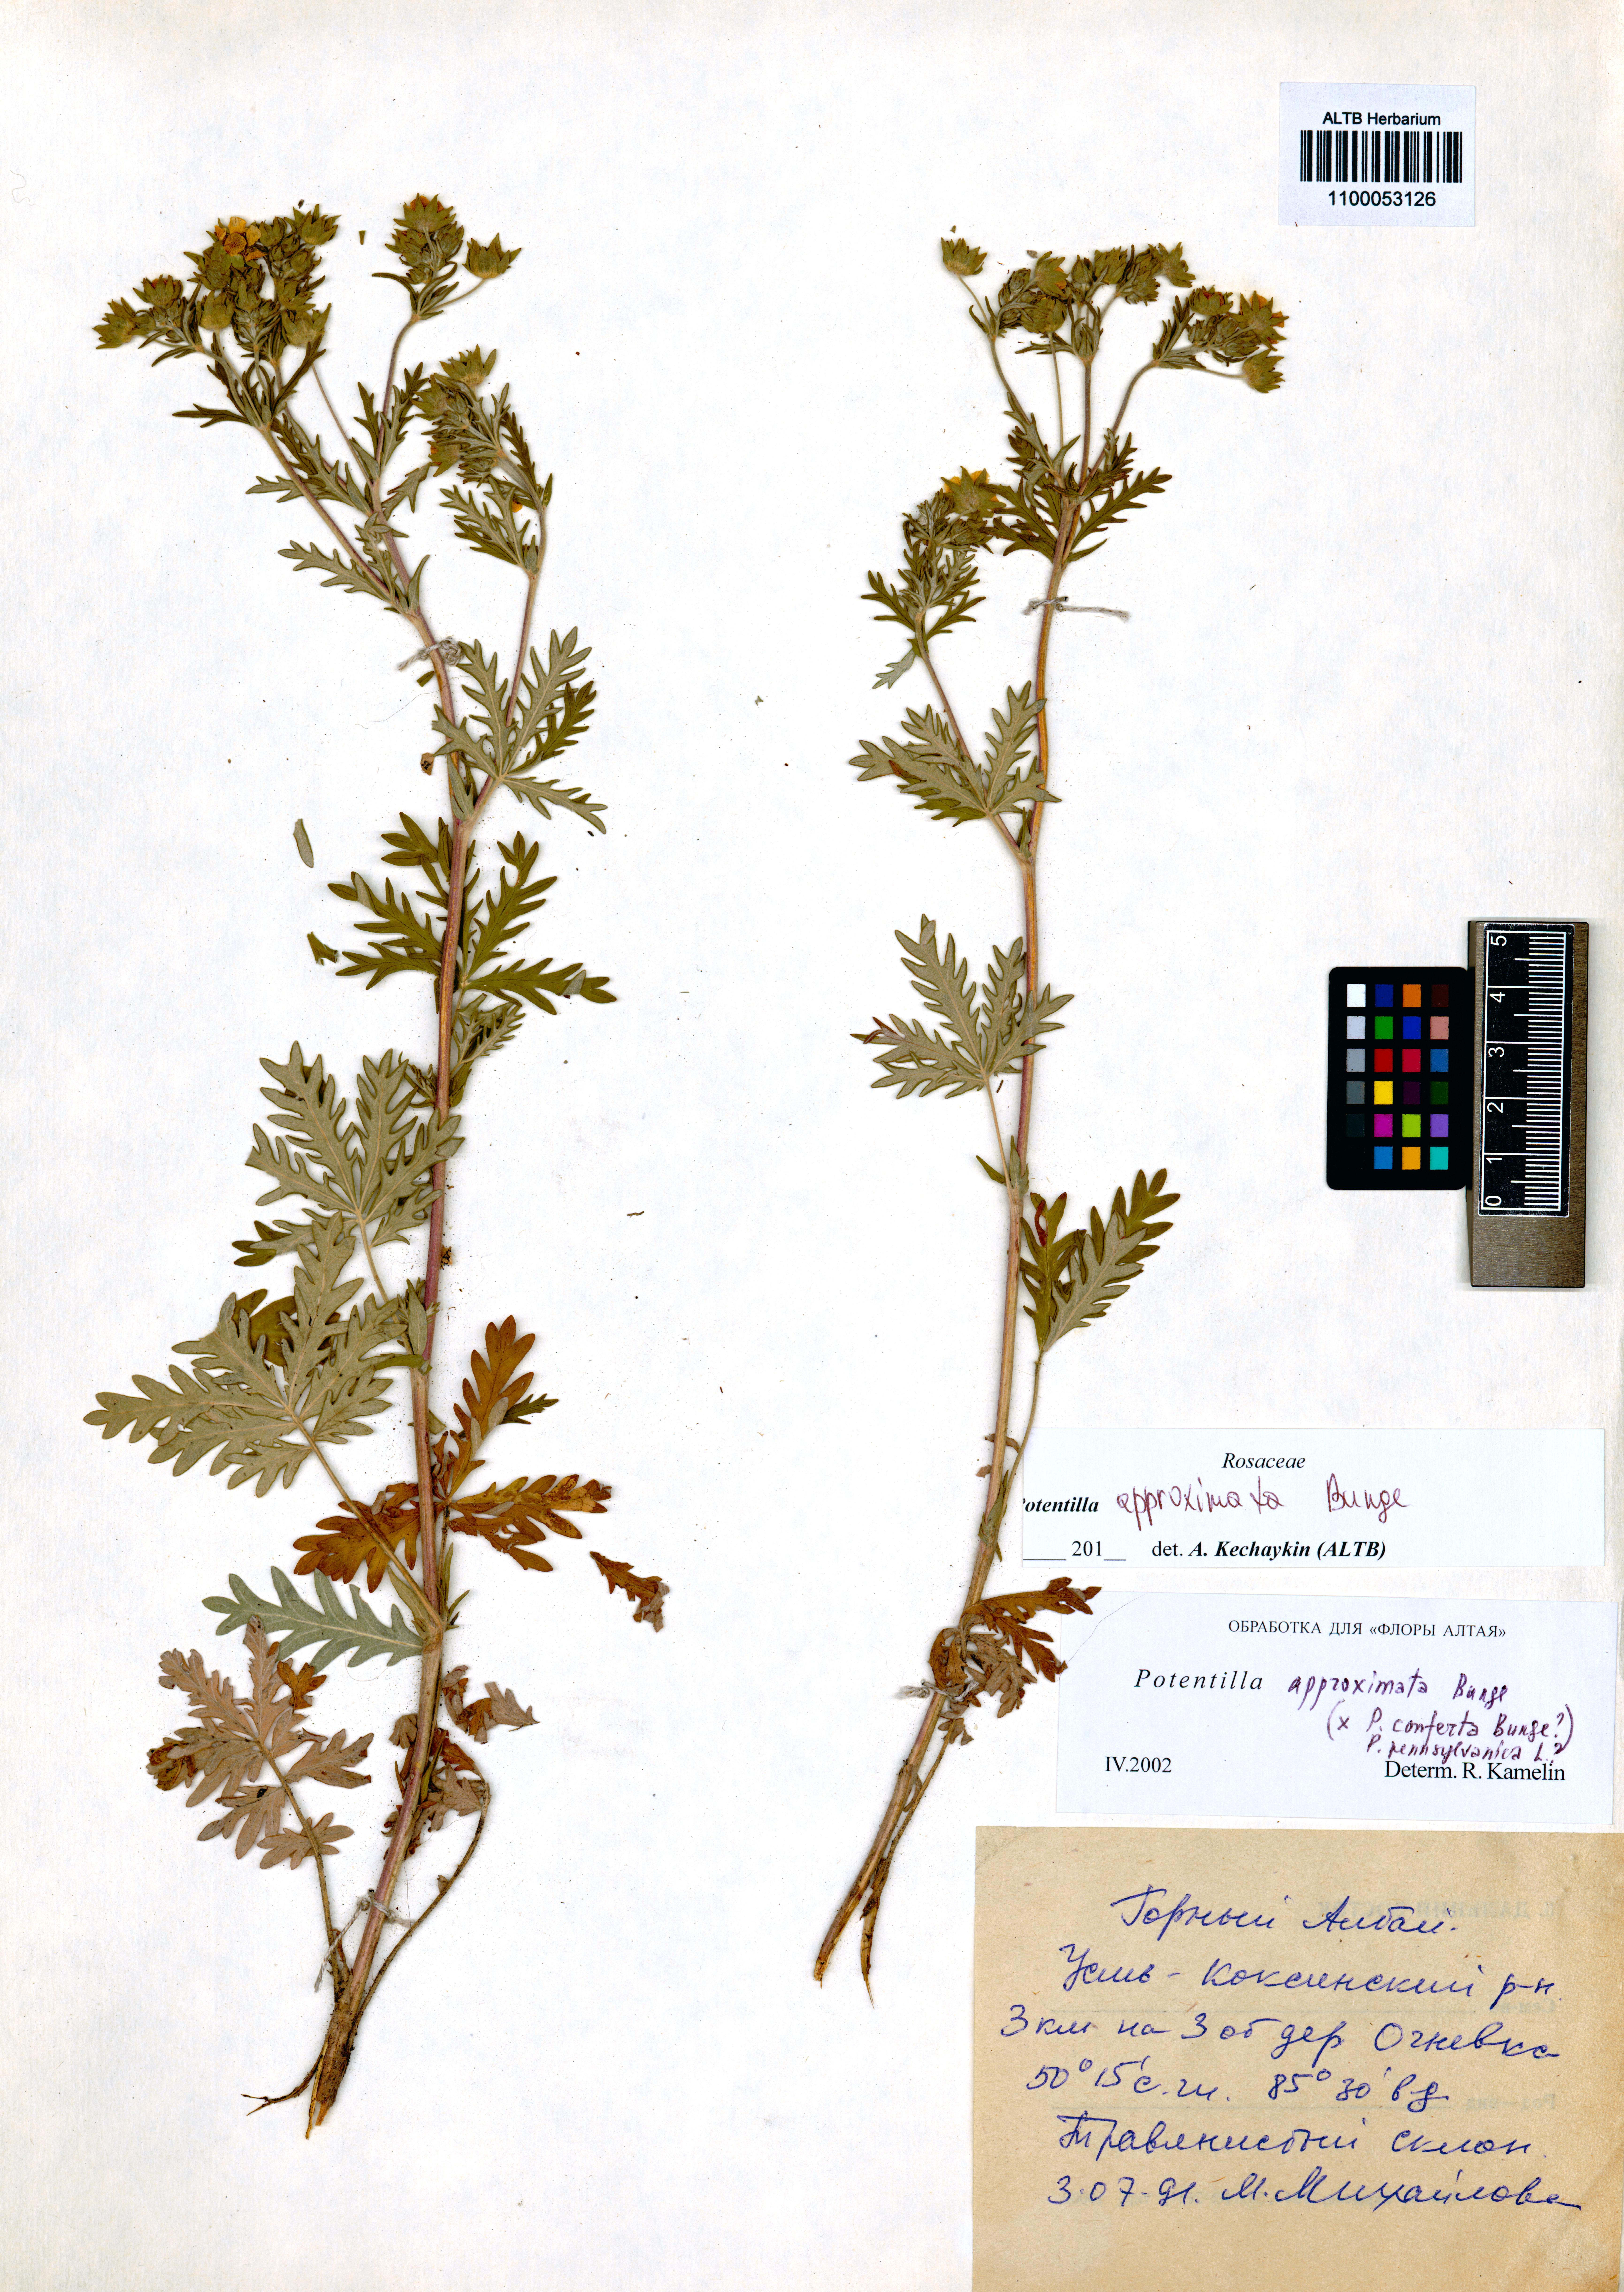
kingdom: Plantae
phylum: Tracheophyta
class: Magnoliopsida
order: Rosales
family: Rosaceae
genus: Potentilla
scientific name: Potentilla conferta
